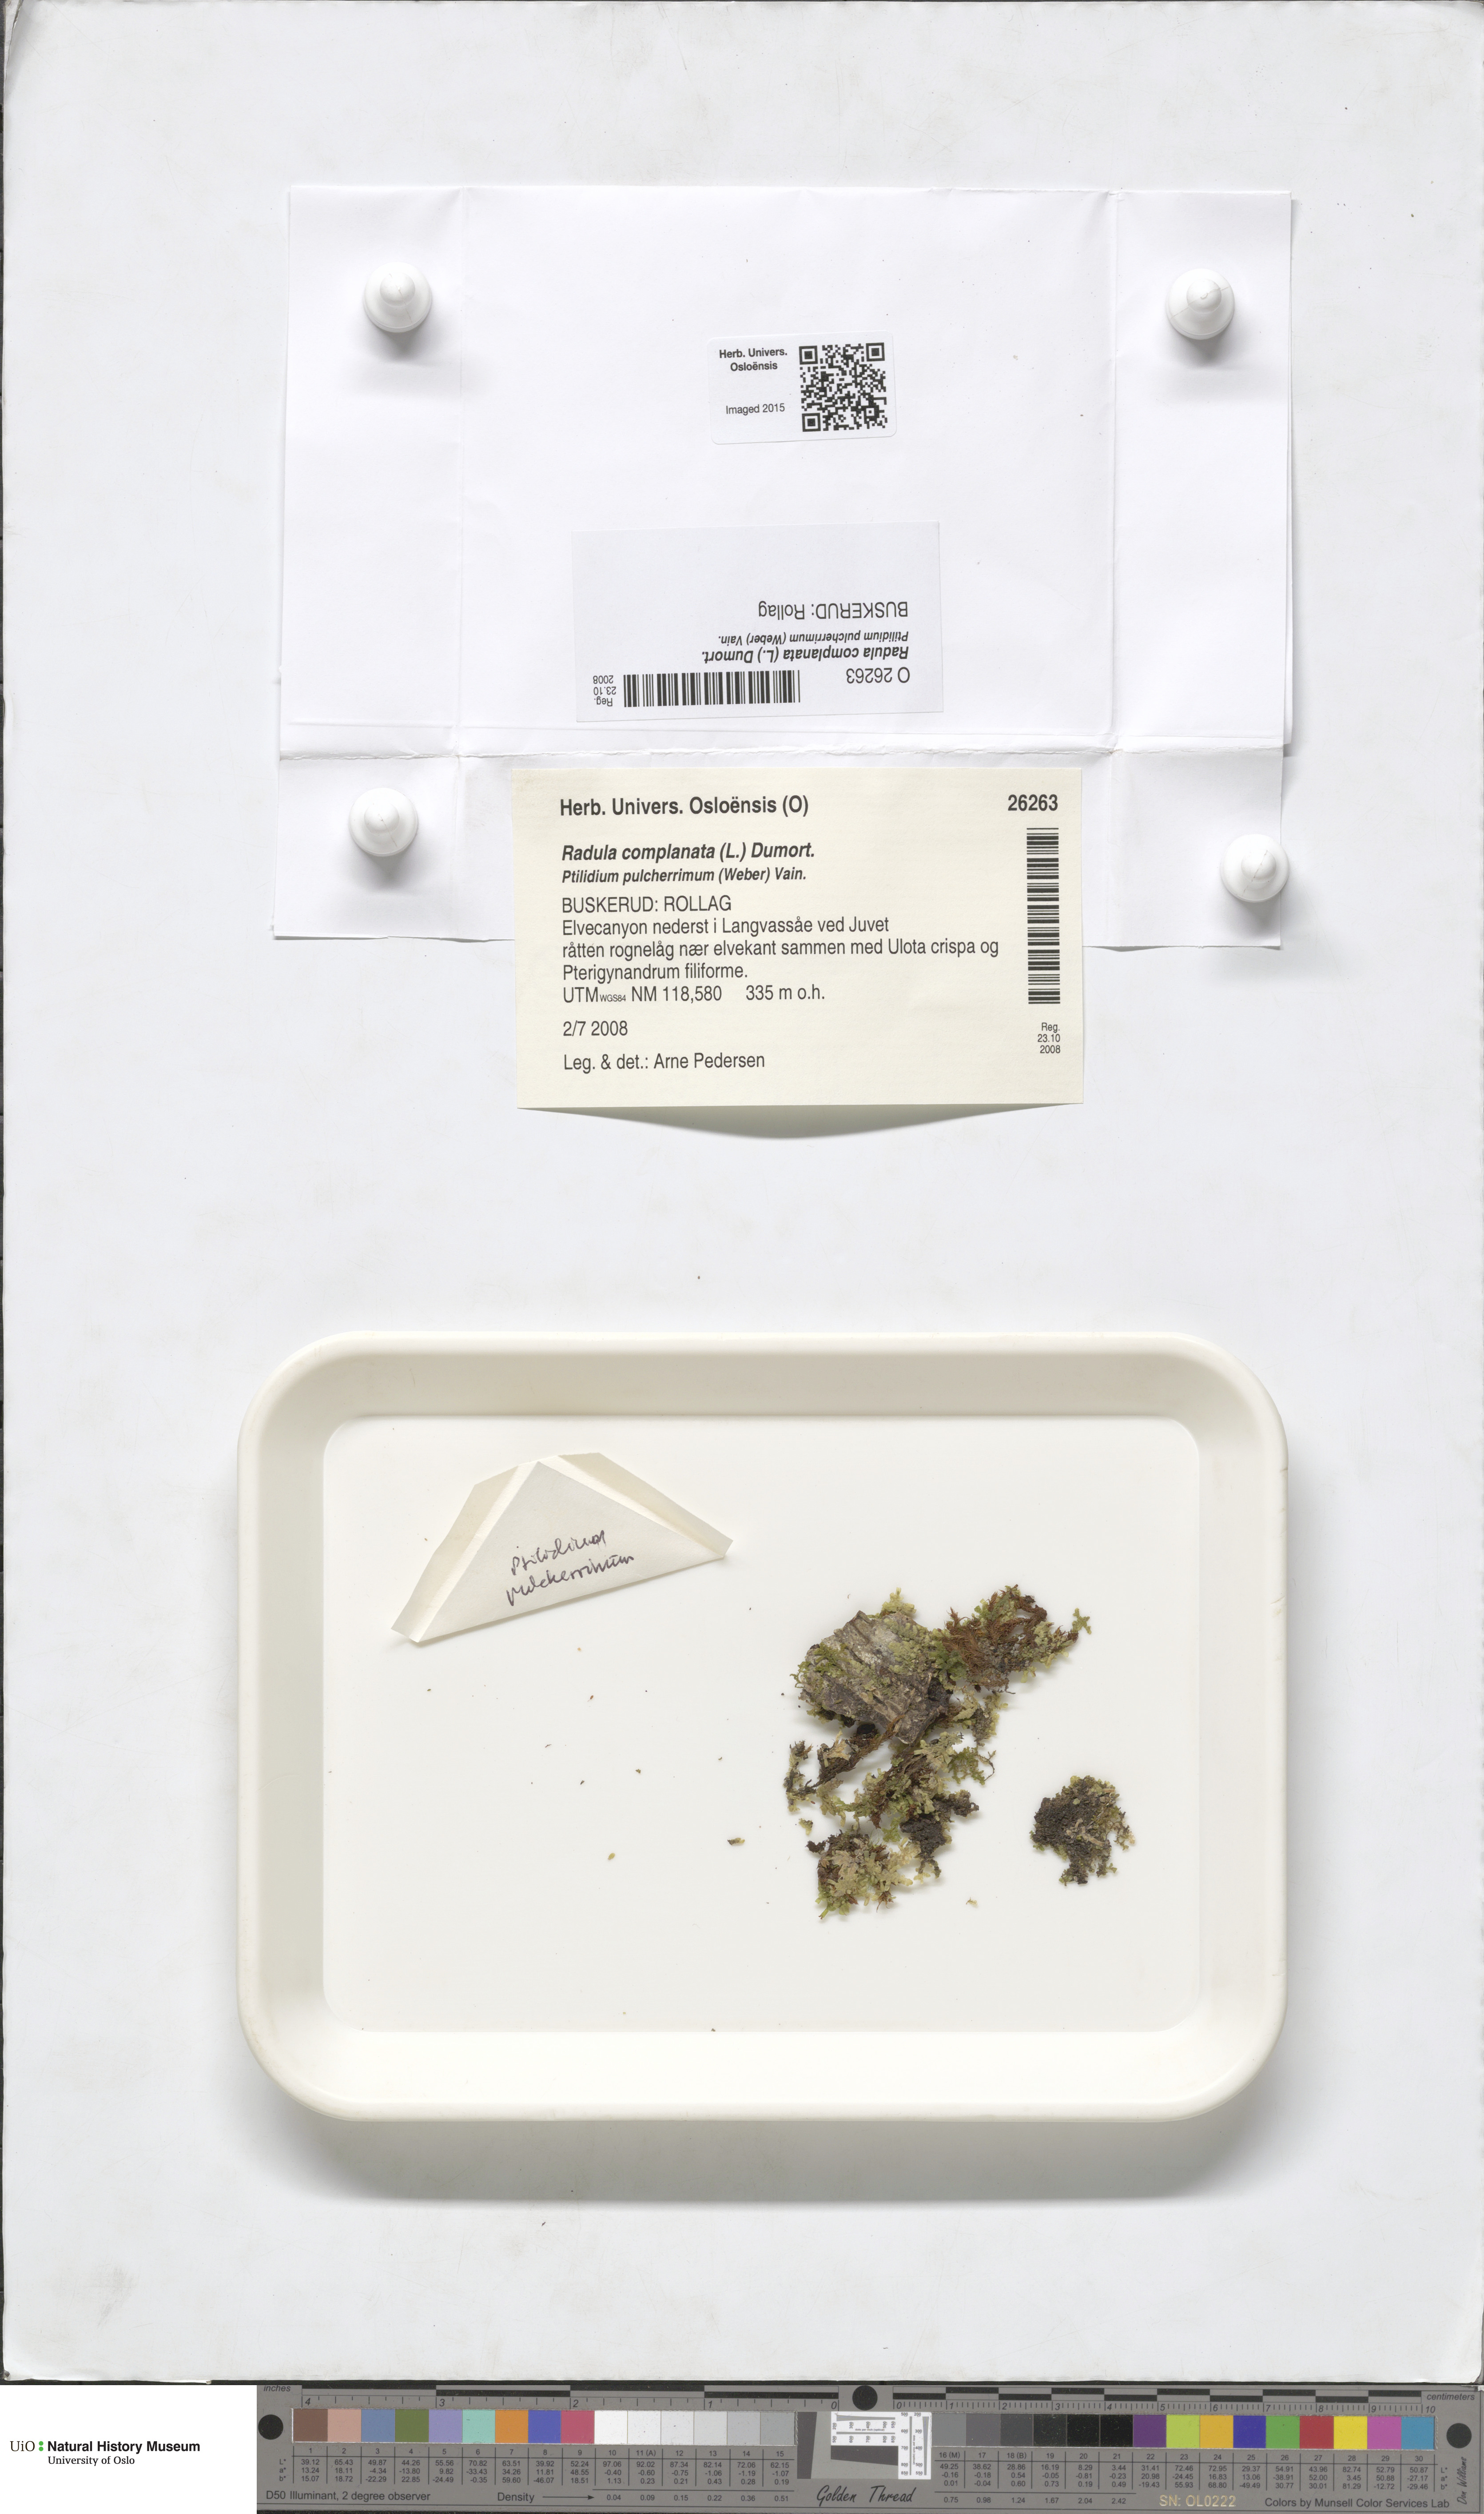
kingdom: Plantae
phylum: Marchantiophyta
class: Jungermanniopsida
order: Porellales
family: Radulaceae
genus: Radula
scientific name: Radula complanata
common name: Flat-leaved scalewort
